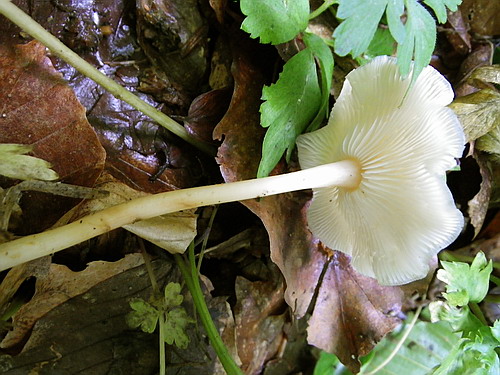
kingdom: Fungi
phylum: Basidiomycota
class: Agaricomycetes
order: Agaricales
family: Omphalotaceae
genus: Gymnopus
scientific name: Gymnopus aquosus
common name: bleg fladhat
